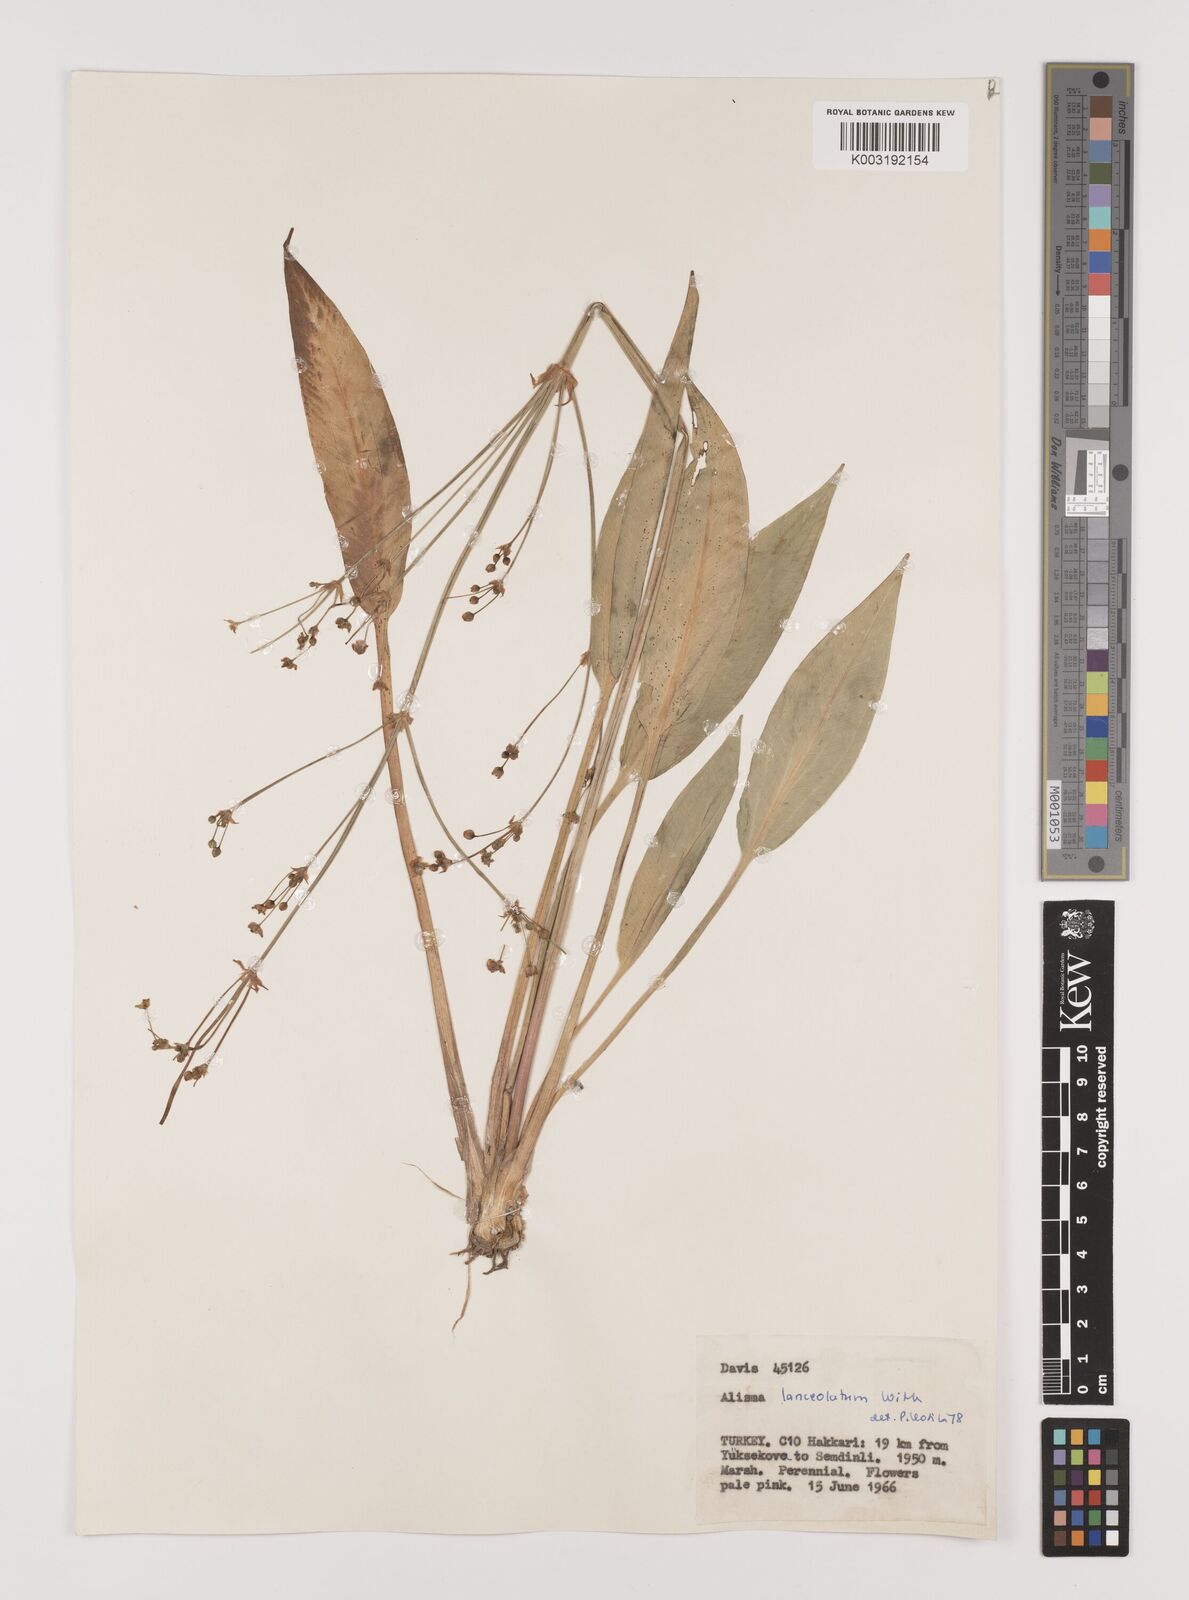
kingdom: Plantae
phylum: Tracheophyta
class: Liliopsida
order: Alismatales
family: Alismataceae
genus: Alisma
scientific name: Alisma lanceolatum
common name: Narrow-leaved water-plantain
